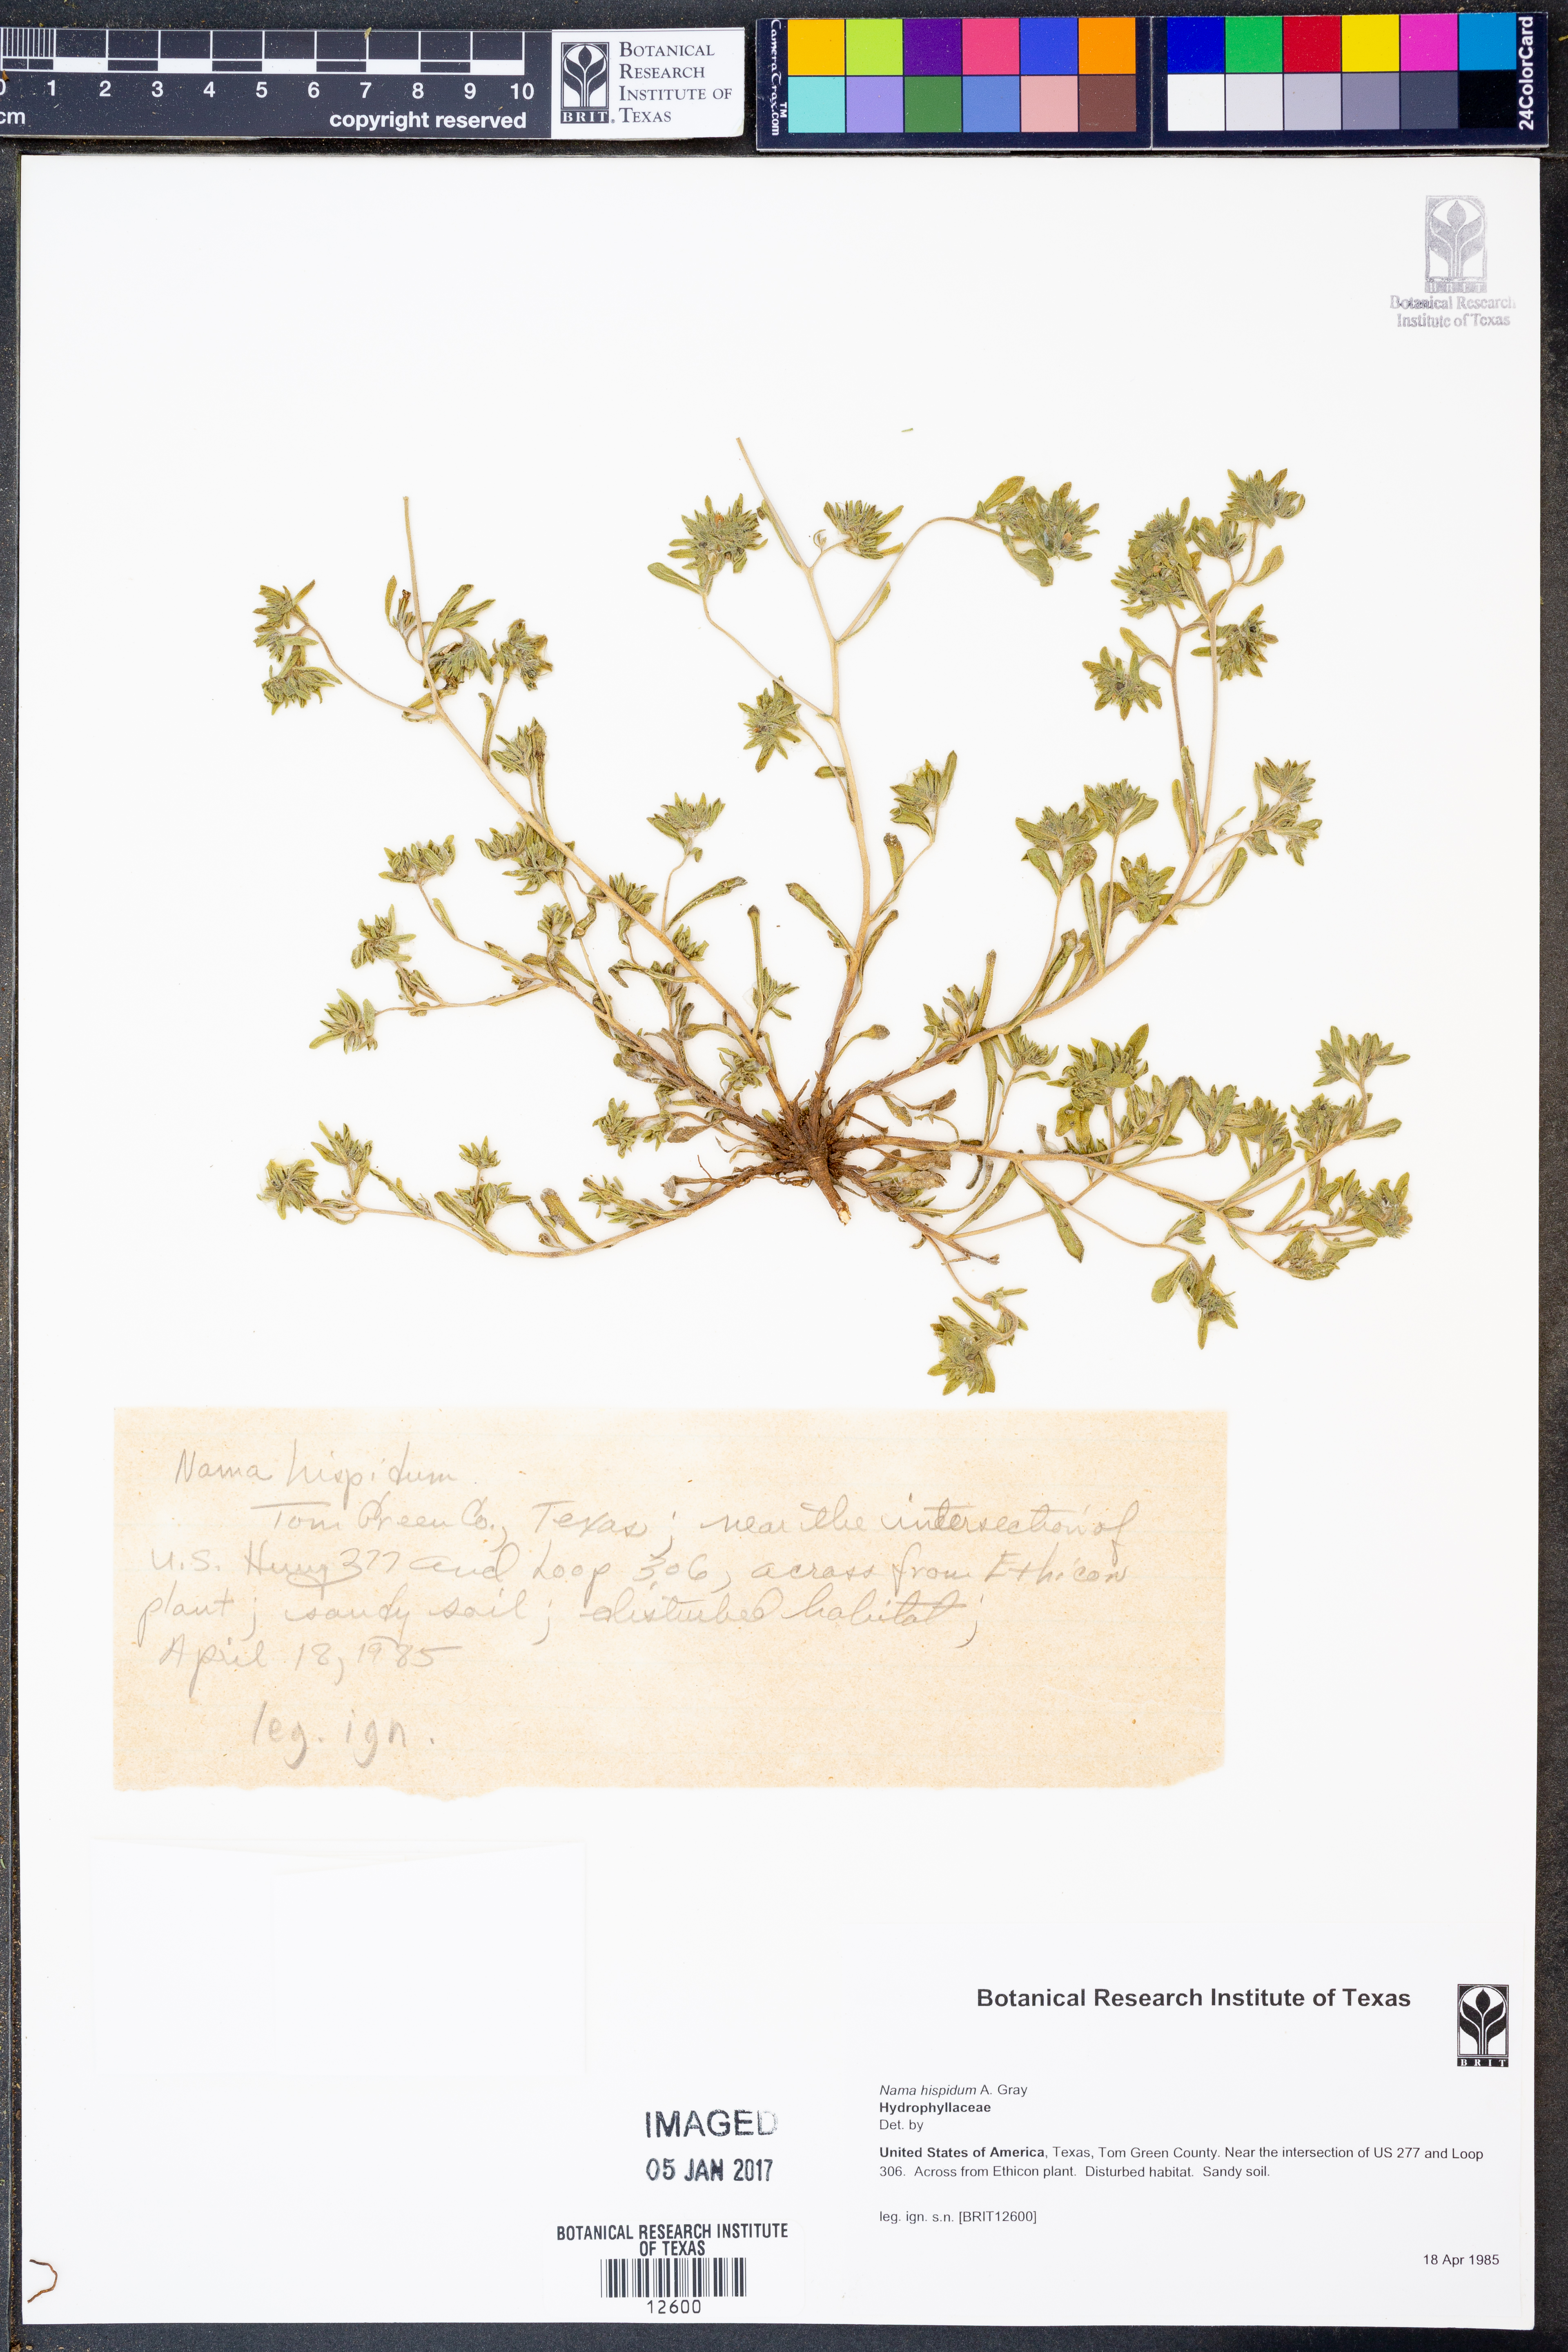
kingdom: Plantae
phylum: Tracheophyta
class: Magnoliopsida
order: Boraginales
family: Namaceae
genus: Nama
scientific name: Nama hispida
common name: Bristly nama
